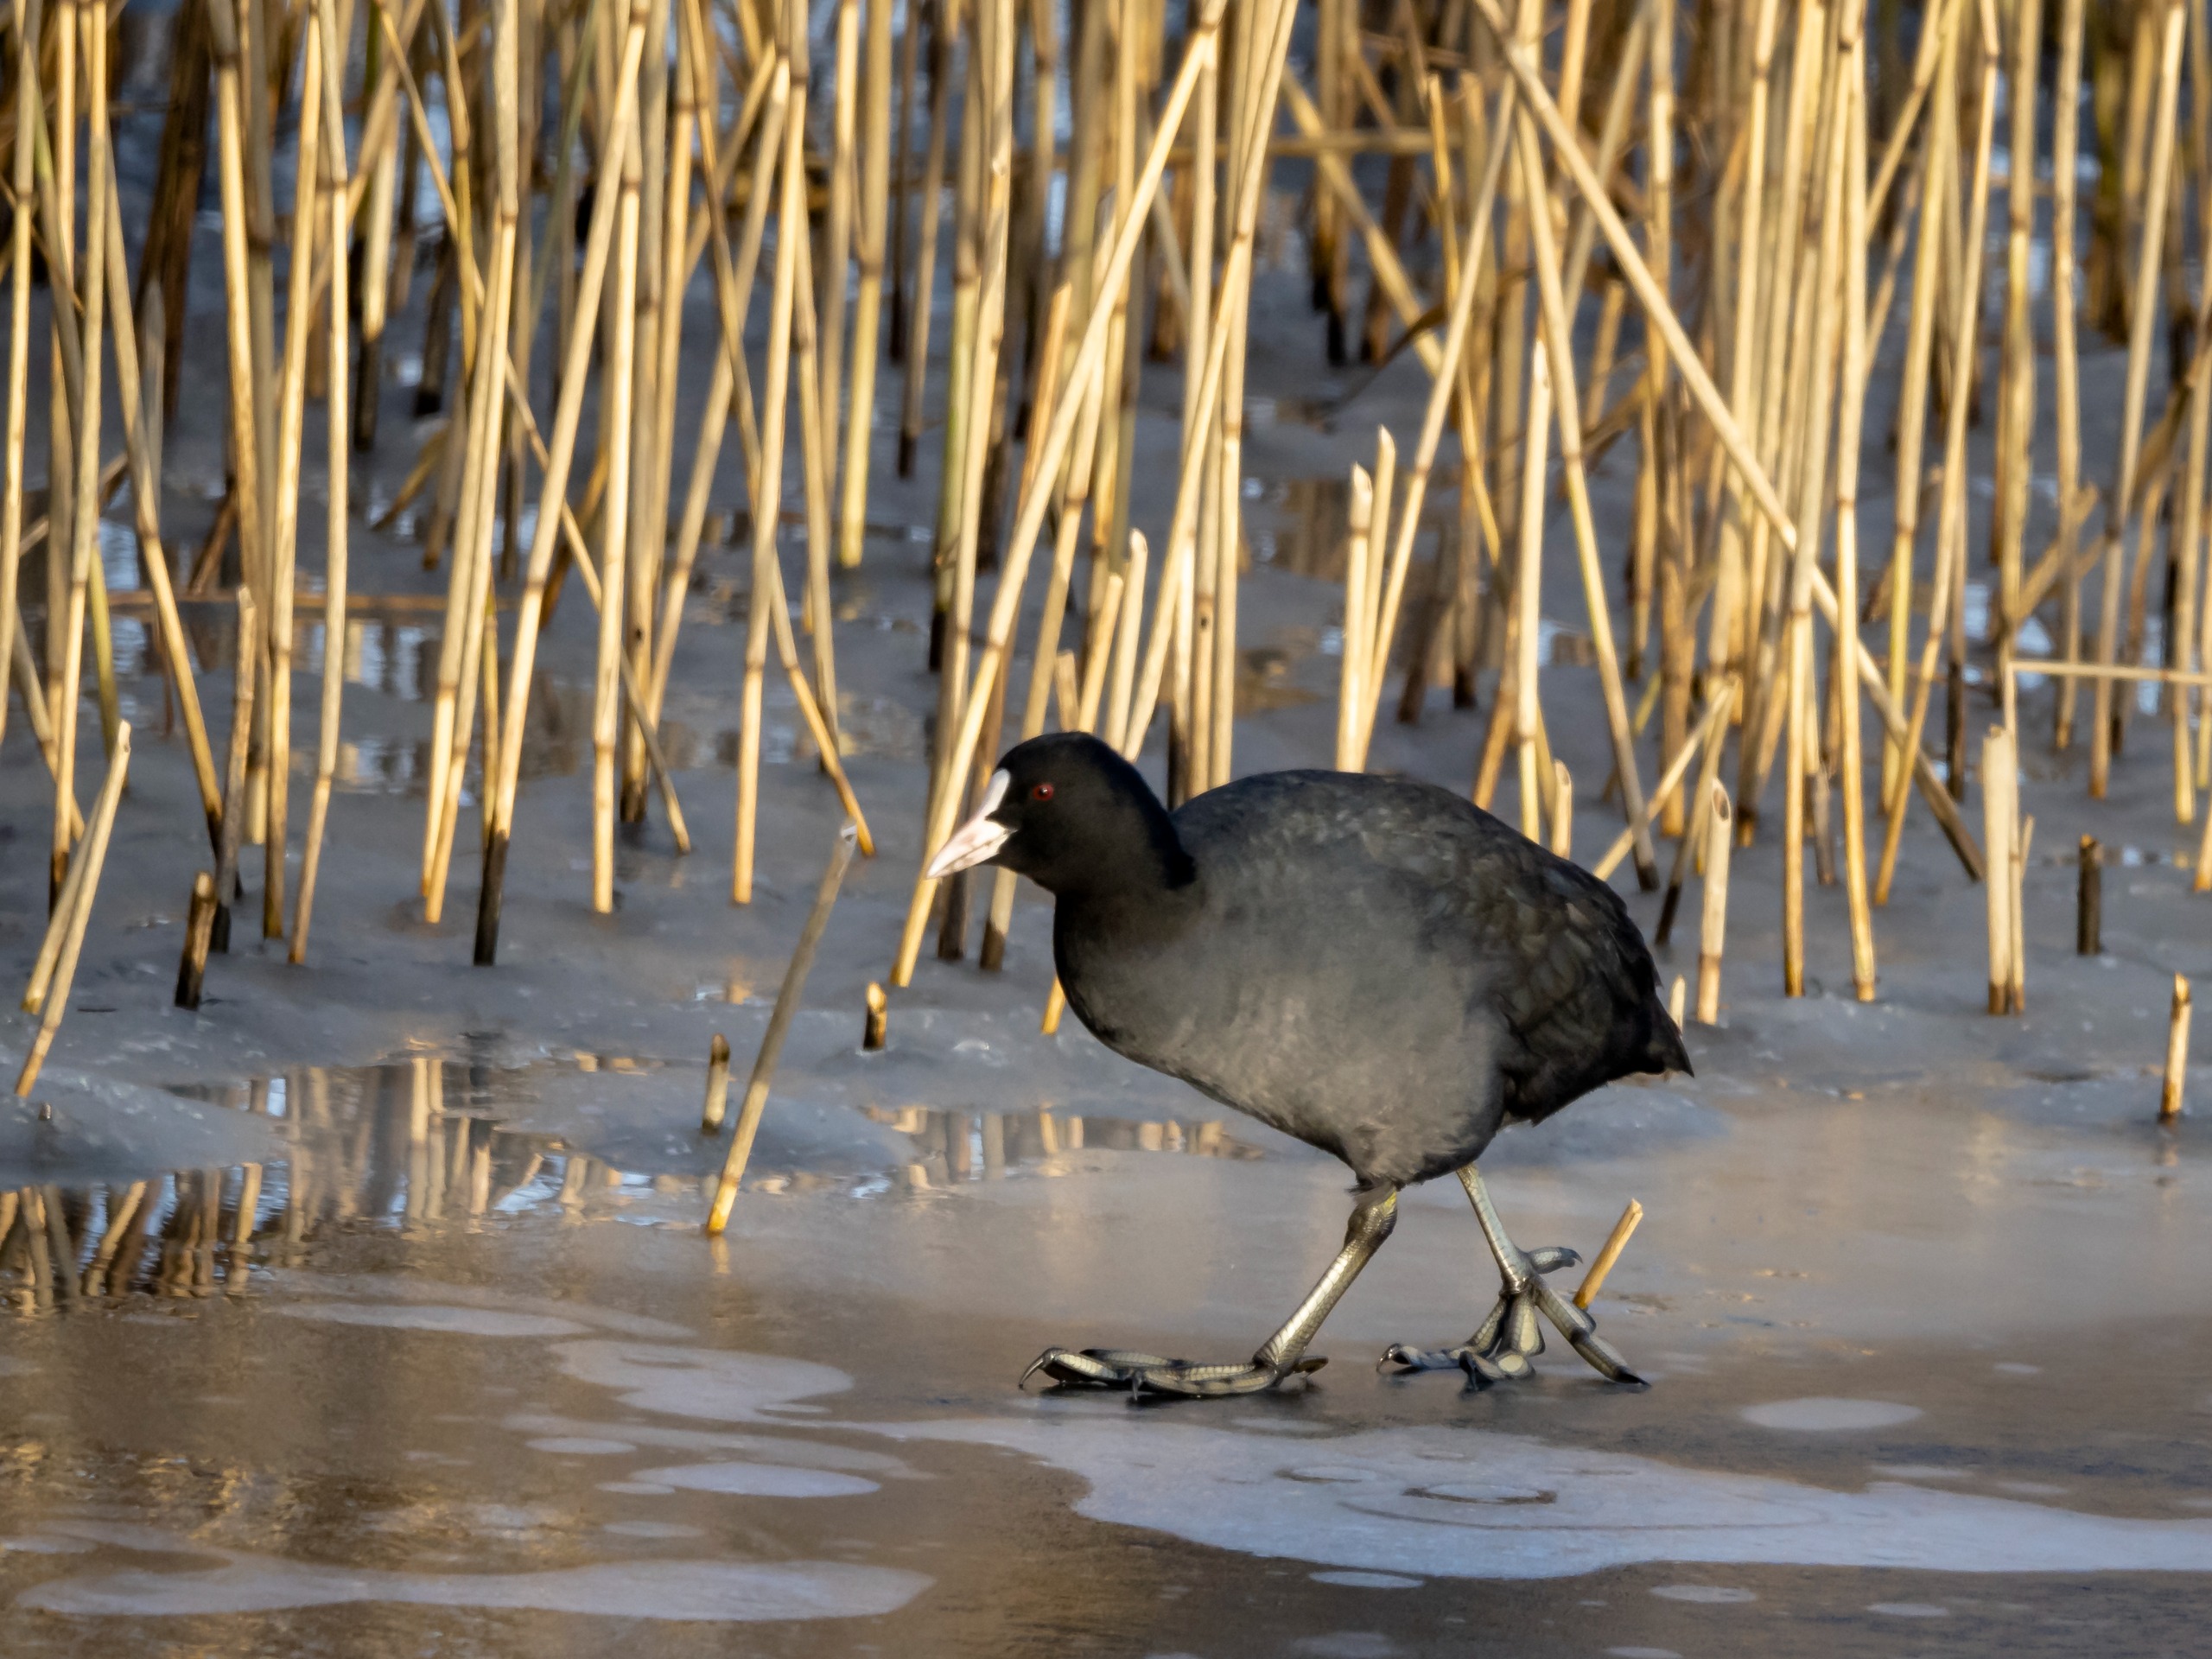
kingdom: Animalia
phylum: Chordata
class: Aves
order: Gruiformes
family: Rallidae
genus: Fulica
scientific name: Fulica atra
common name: Blishøne
